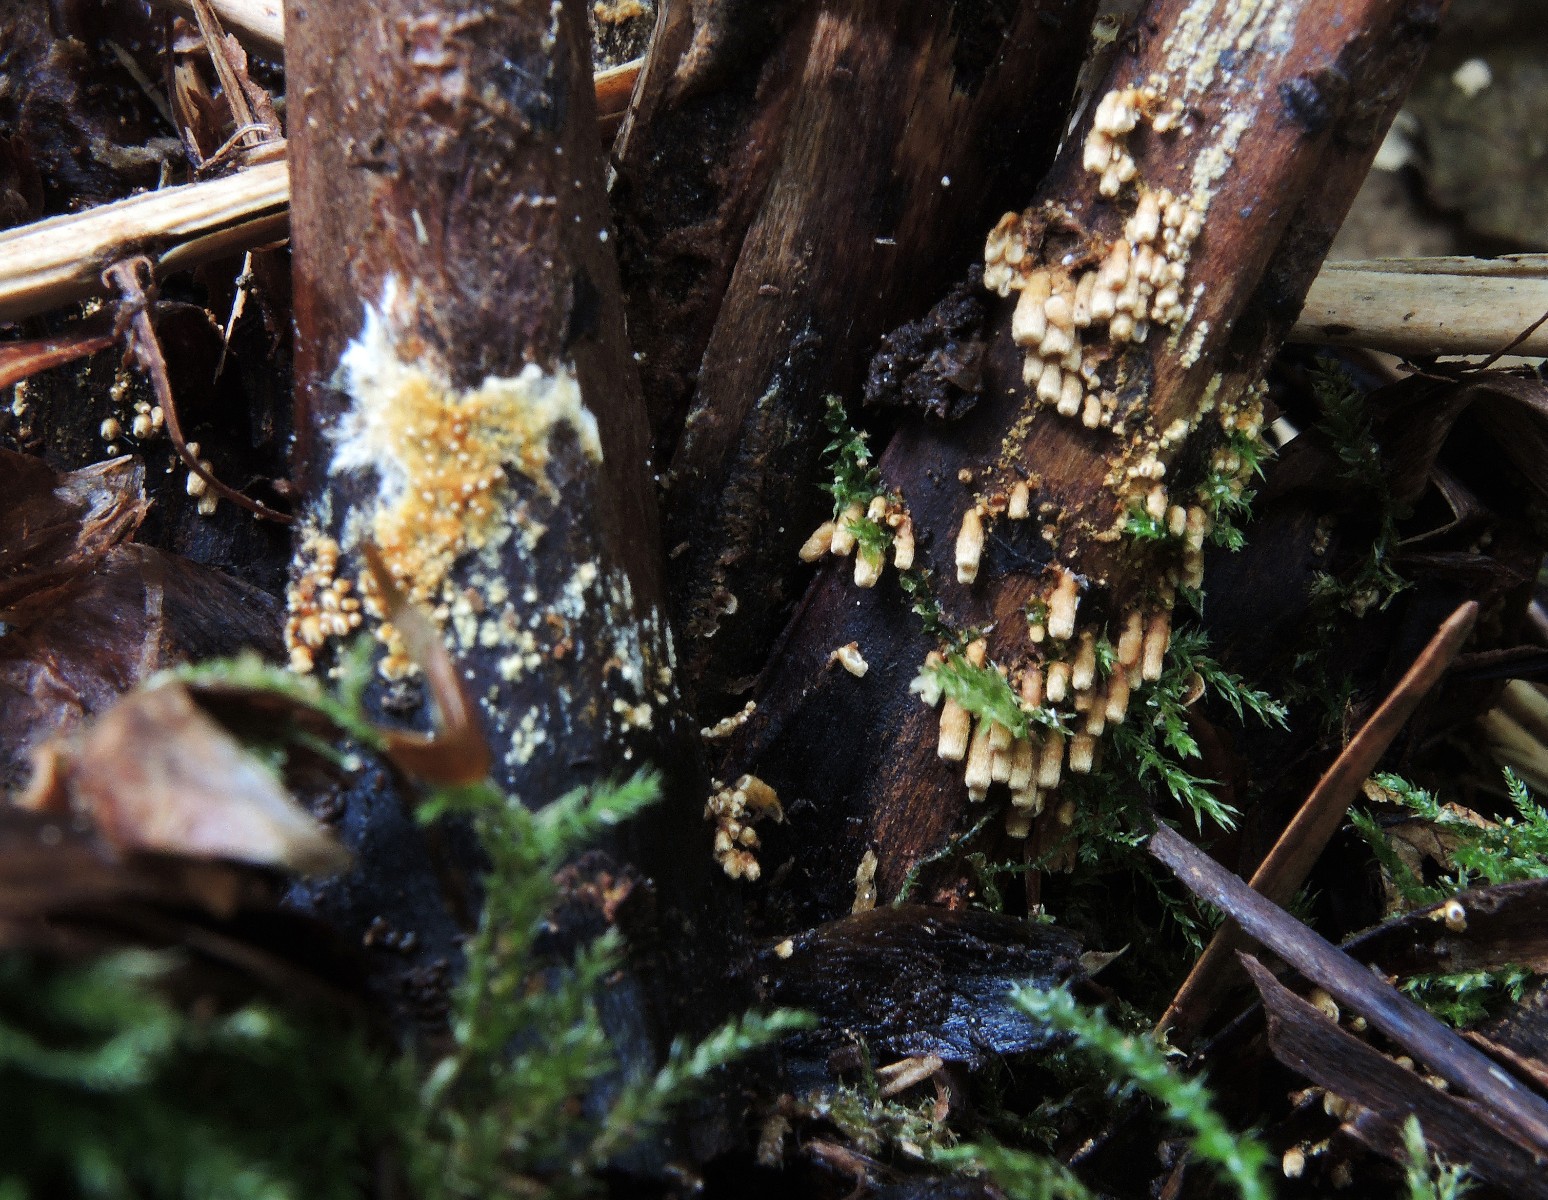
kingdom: Fungi
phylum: Basidiomycota
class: Agaricomycetes
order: Agaricales
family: Niaceae
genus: Woldmaria
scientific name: Woldmaria filicina
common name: bregnerør
